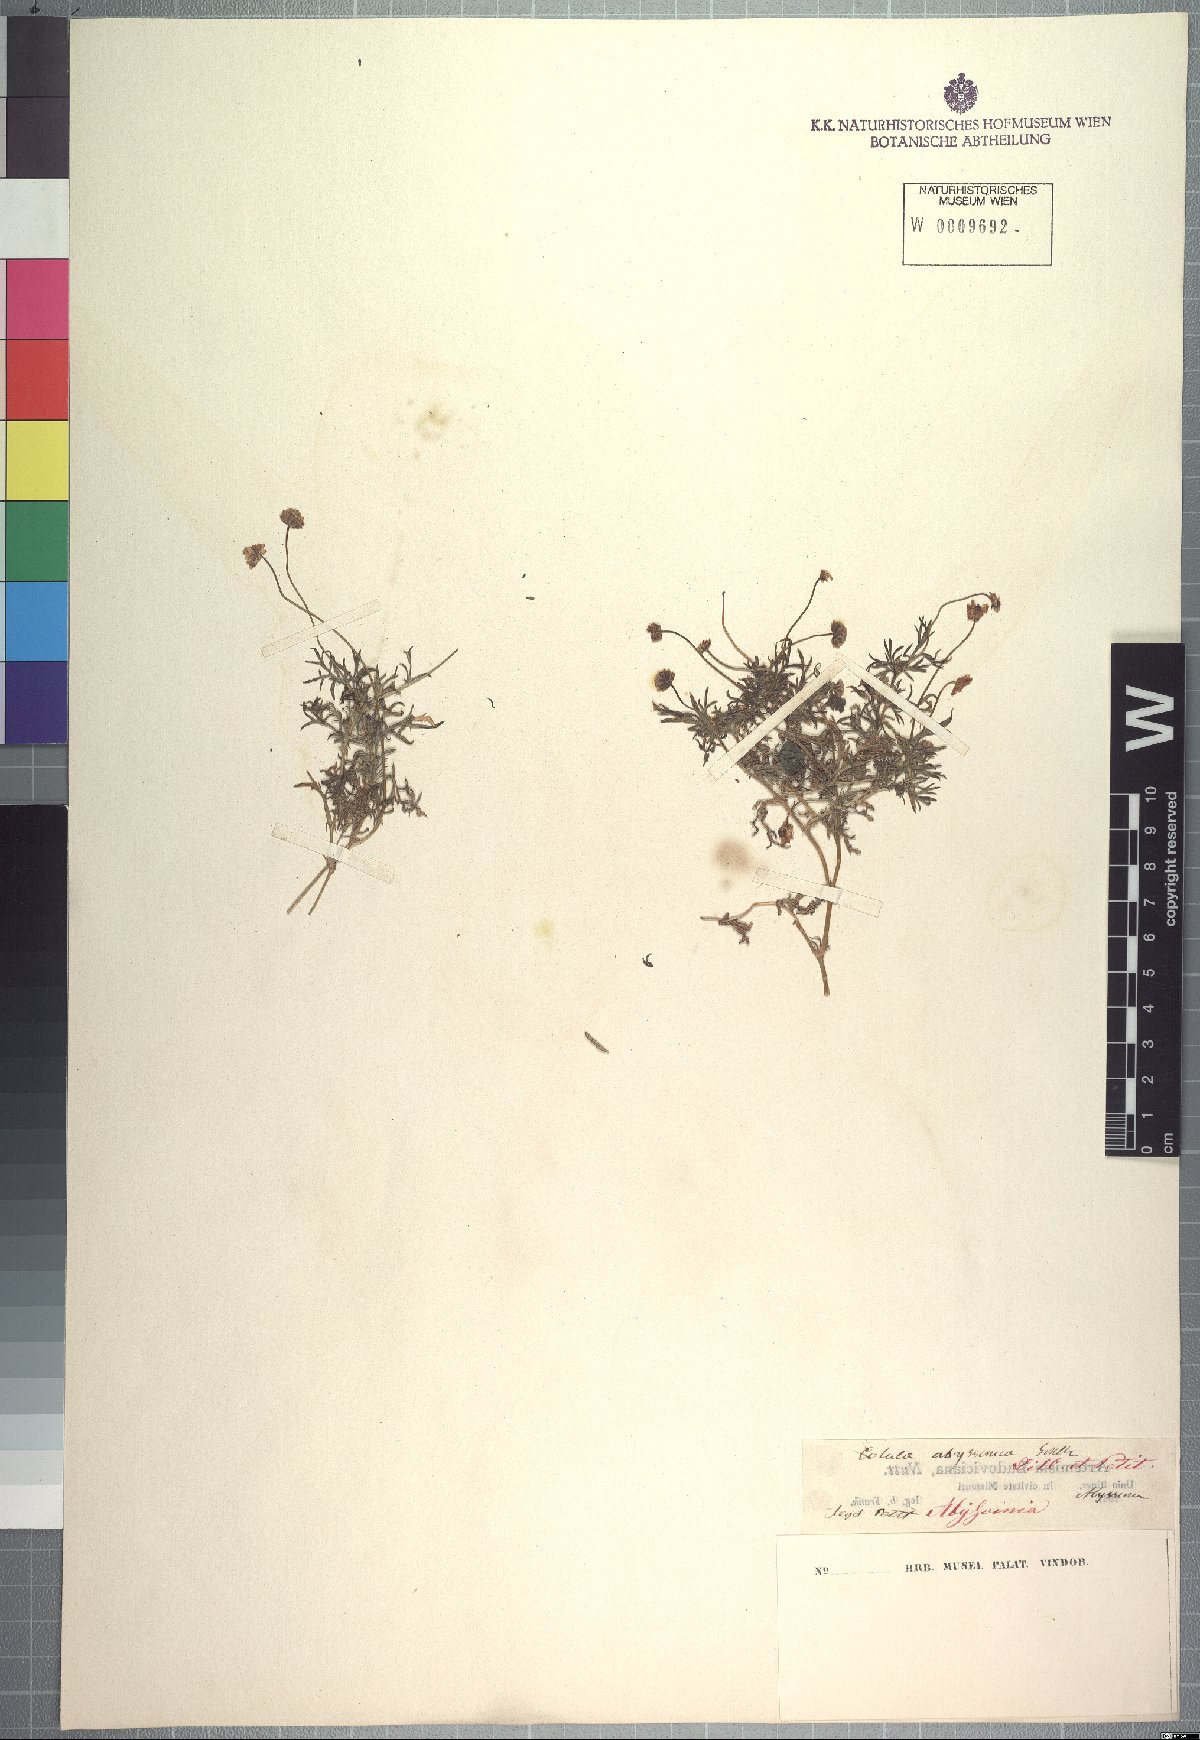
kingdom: Plantae
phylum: Tracheophyta
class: Magnoliopsida
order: Asterales
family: Asteraceae
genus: Cotula
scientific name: Cotula abyssinica
